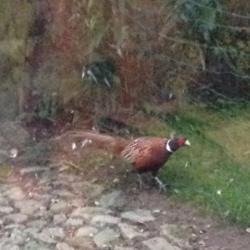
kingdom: Animalia
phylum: Chordata
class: Aves
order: Galliformes
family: Phasianidae
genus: Phasianus
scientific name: Phasianus colchicus
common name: Fasan
